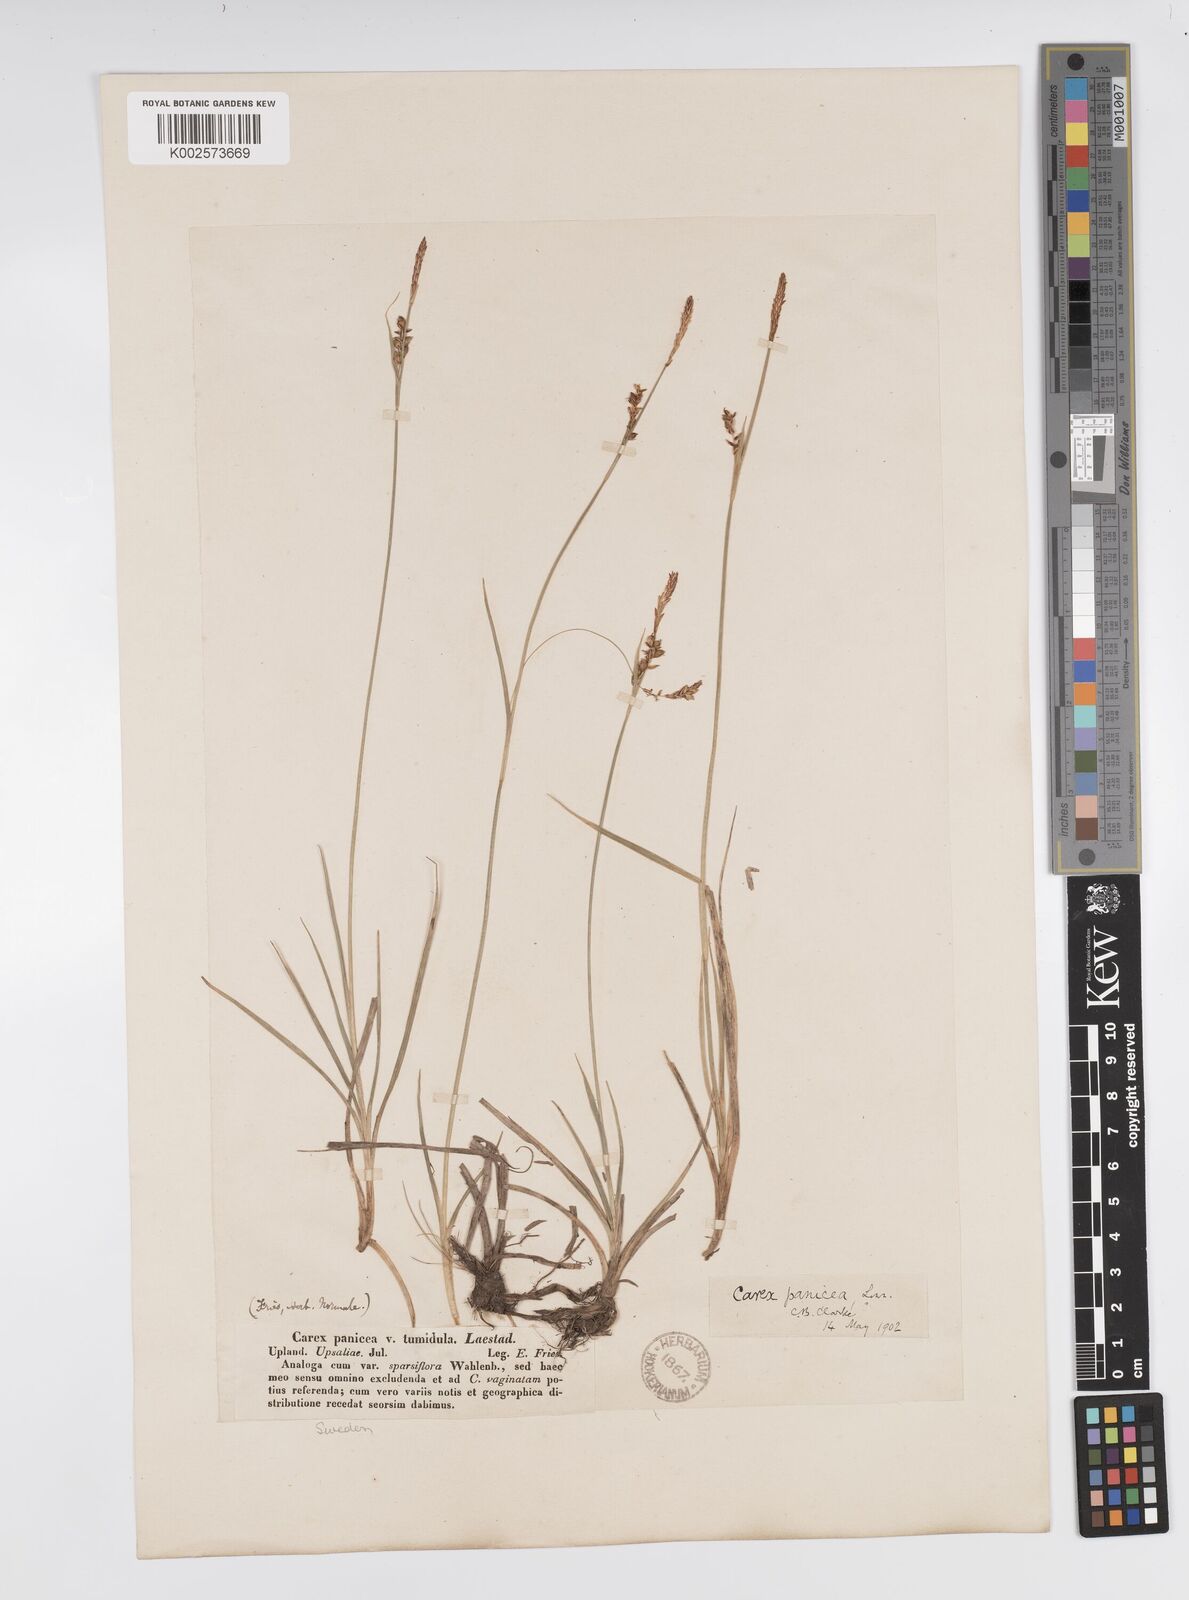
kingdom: Plantae
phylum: Tracheophyta
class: Liliopsida
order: Poales
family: Cyperaceae
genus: Carex
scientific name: Carex panicea
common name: Carnation sedge
